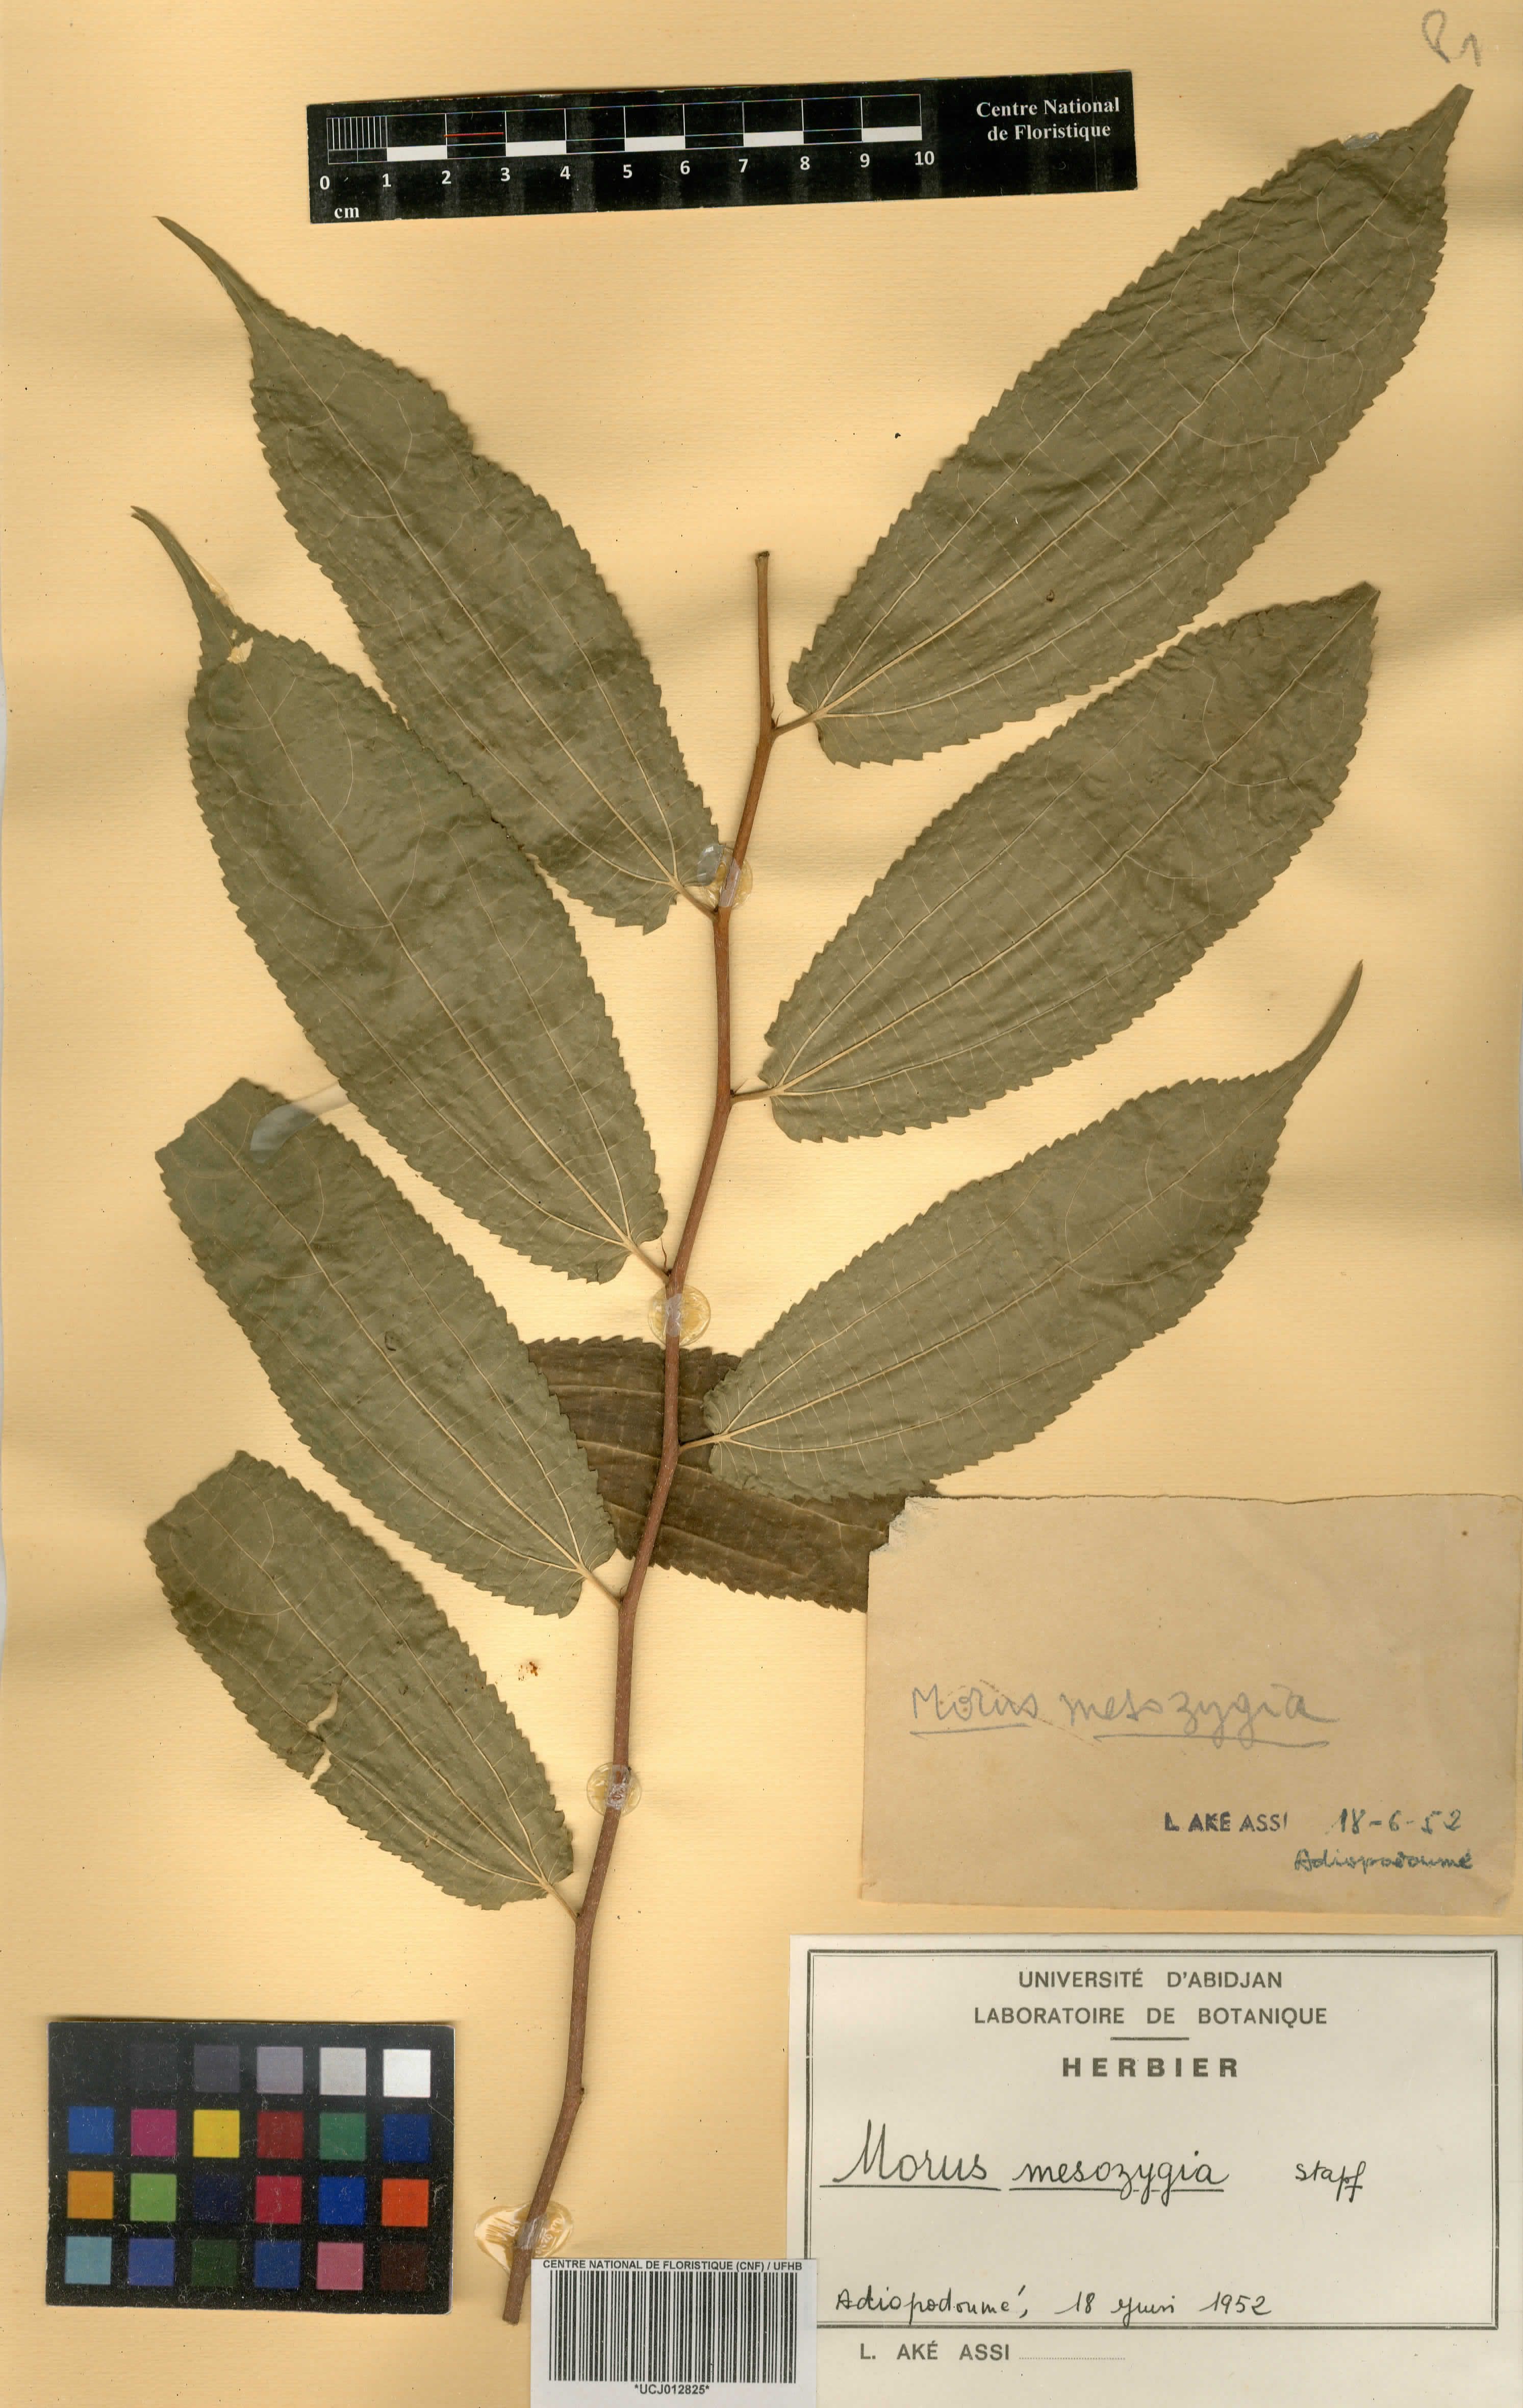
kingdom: Plantae
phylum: Tracheophyta
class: Magnoliopsida
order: Rosales
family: Moraceae
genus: Afromorus
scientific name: Afromorus mesozygia
